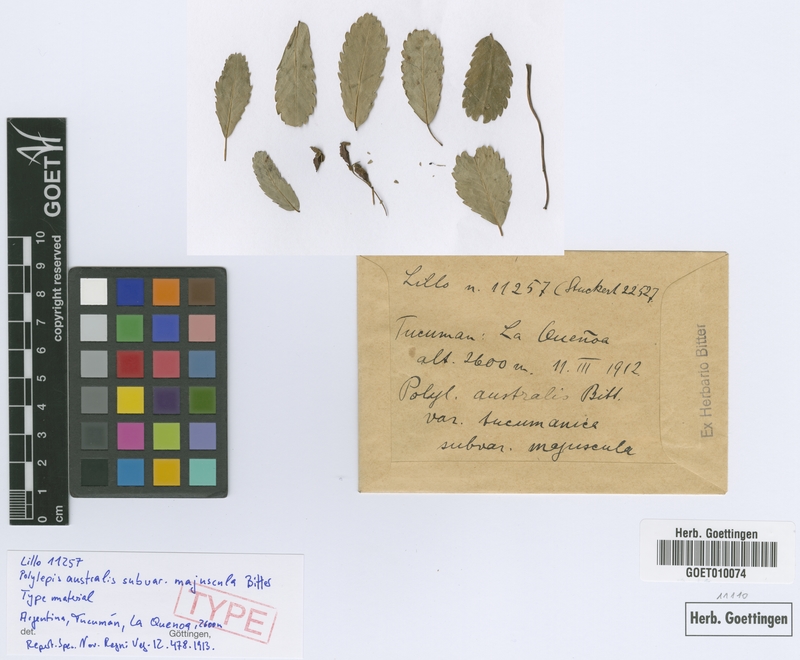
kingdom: Plantae
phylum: Tracheophyta
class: Magnoliopsida
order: Rosales
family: Rosaceae
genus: Polylepis
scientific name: Polylepis australis
